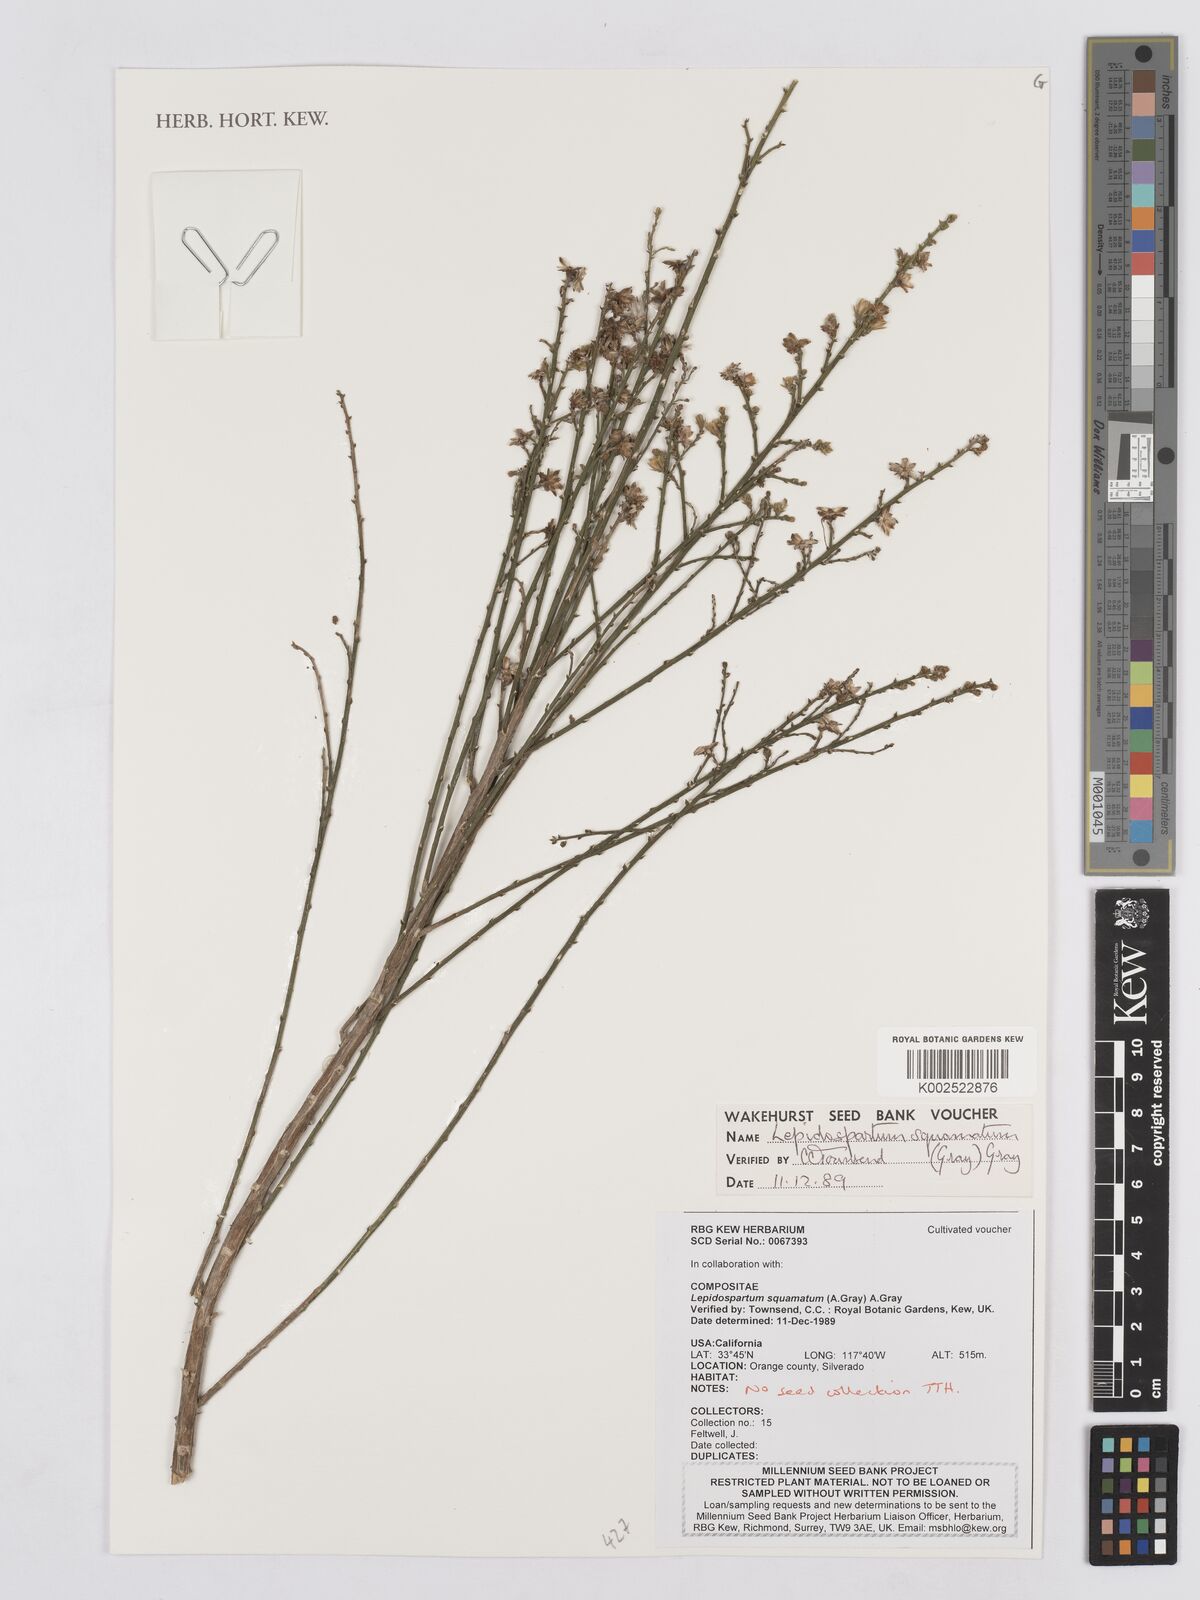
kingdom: Plantae
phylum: Tracheophyta
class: Magnoliopsida
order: Asterales
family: Asteraceae
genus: Lepidospartum
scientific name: Lepidospartum squamatum
